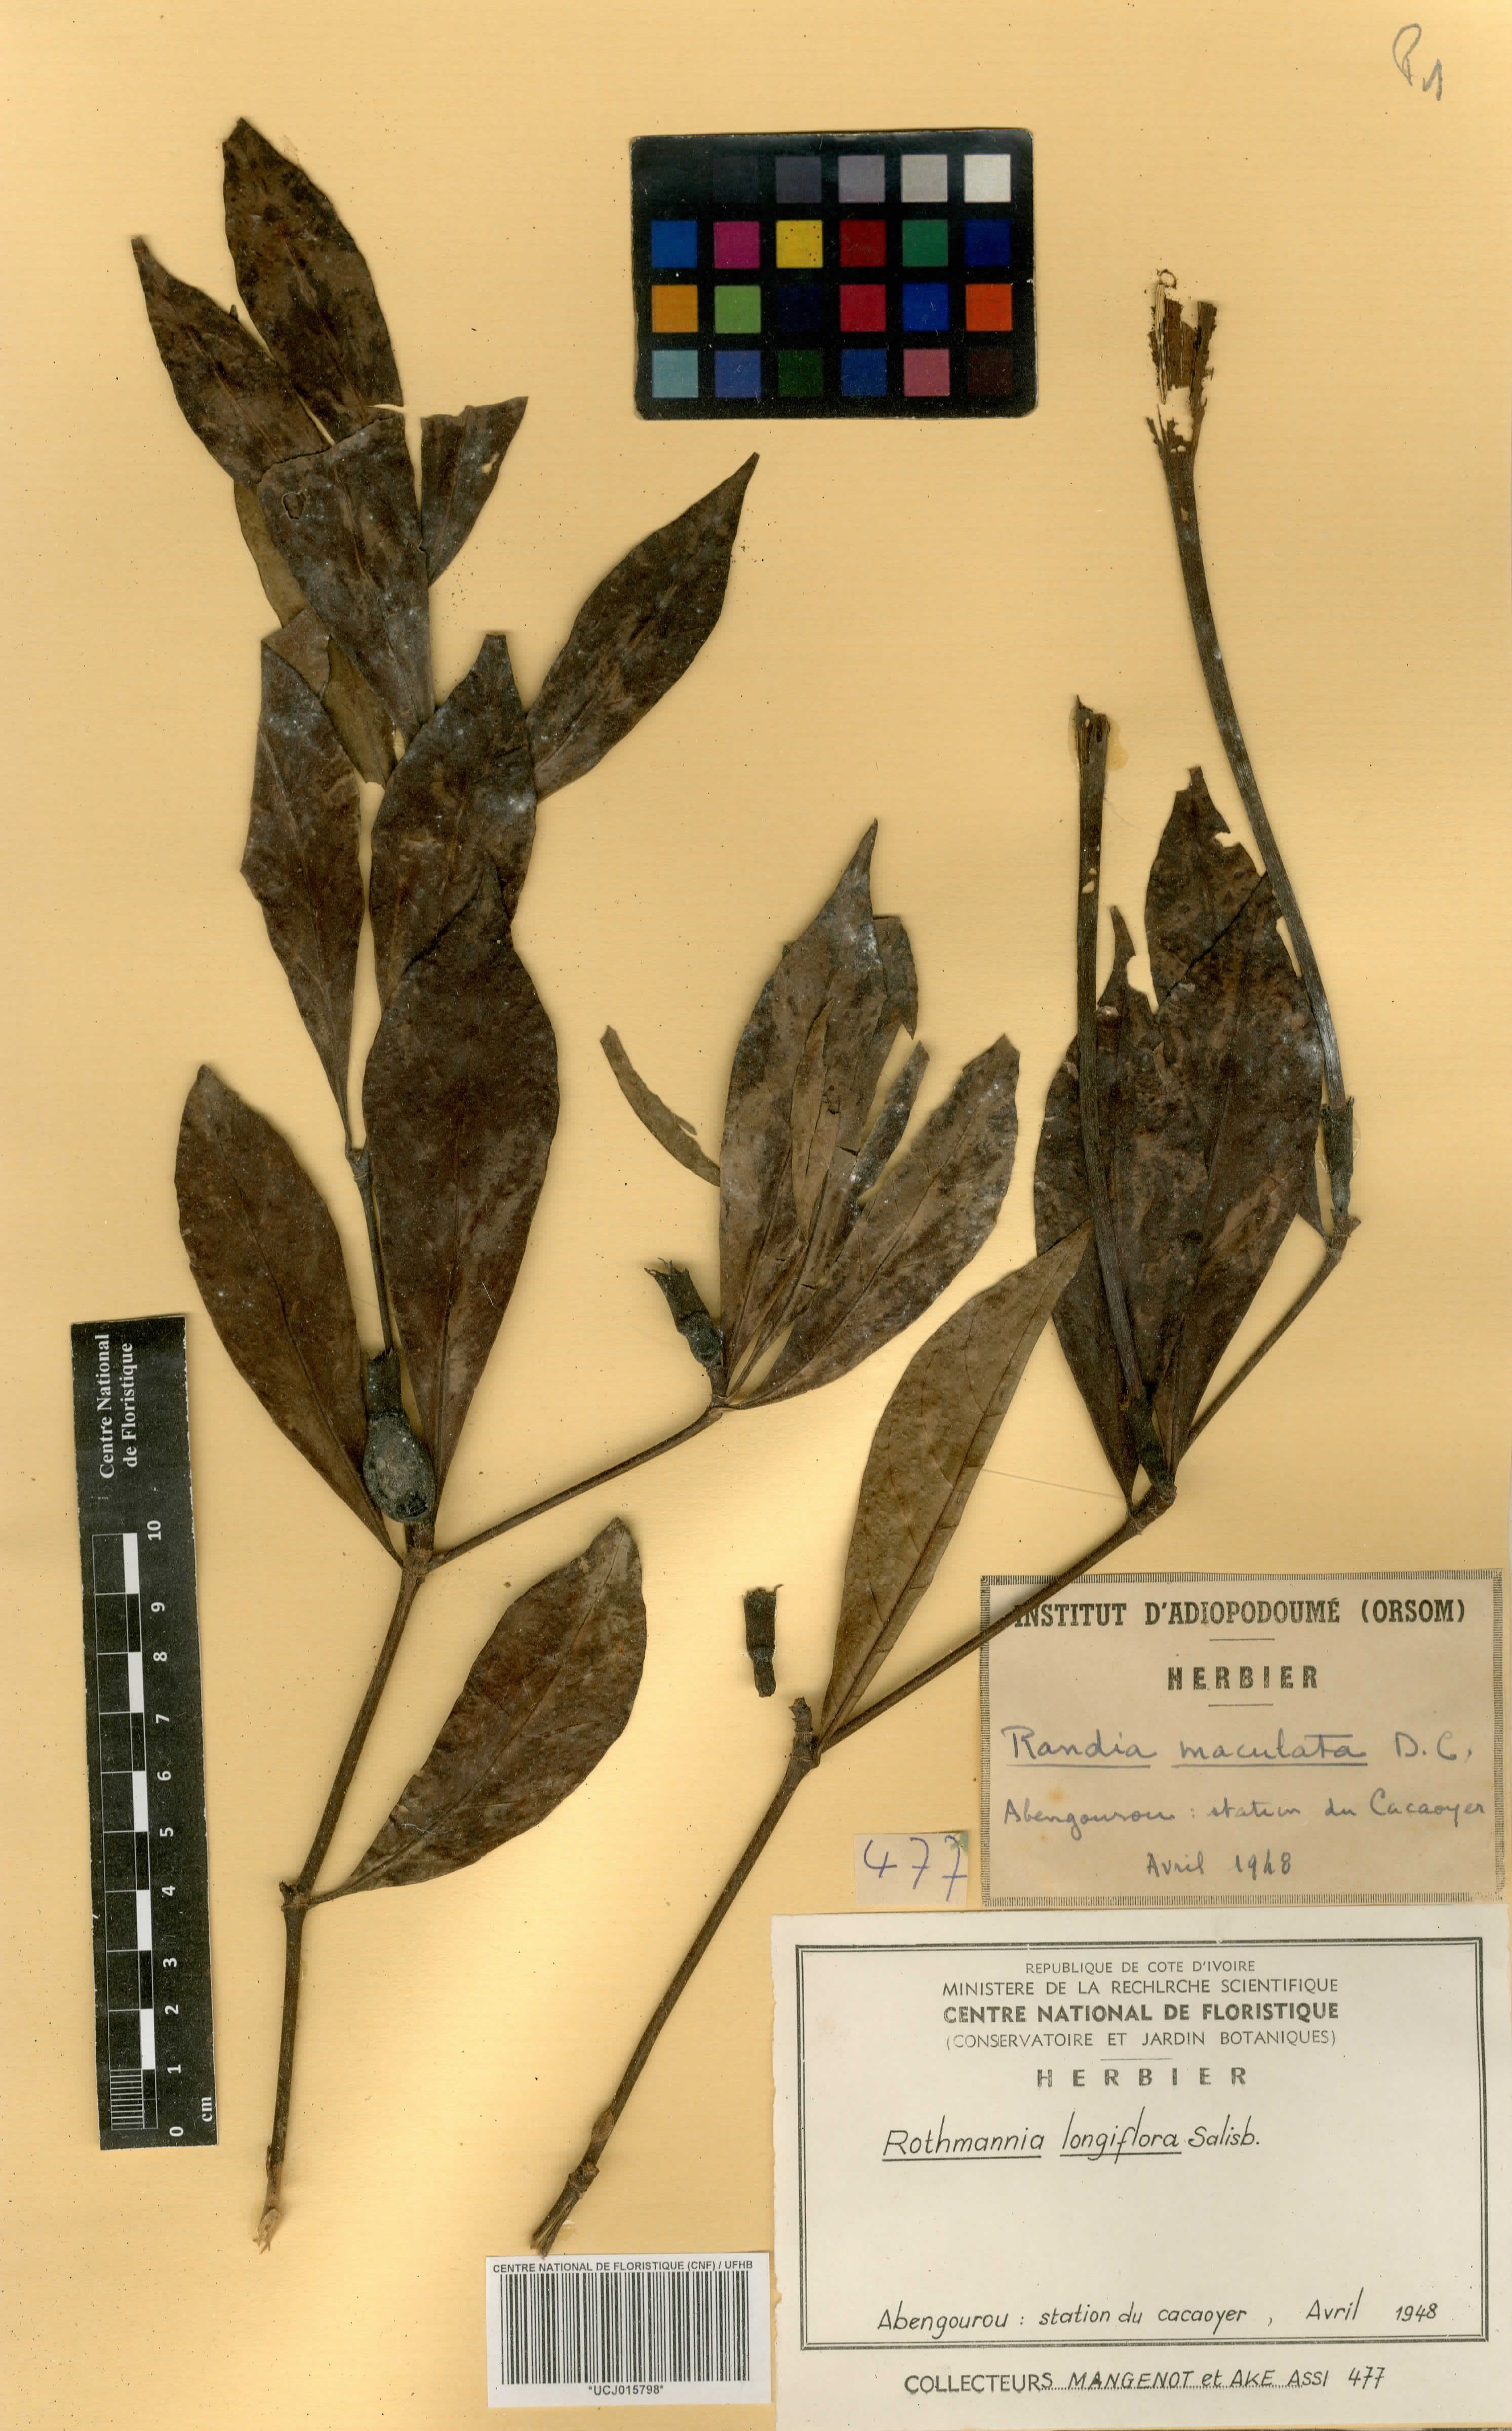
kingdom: Plantae
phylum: Tracheophyta
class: Magnoliopsida
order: Gentianales
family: Rubiaceae
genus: Rothmannia
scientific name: Rothmannia longiflora
